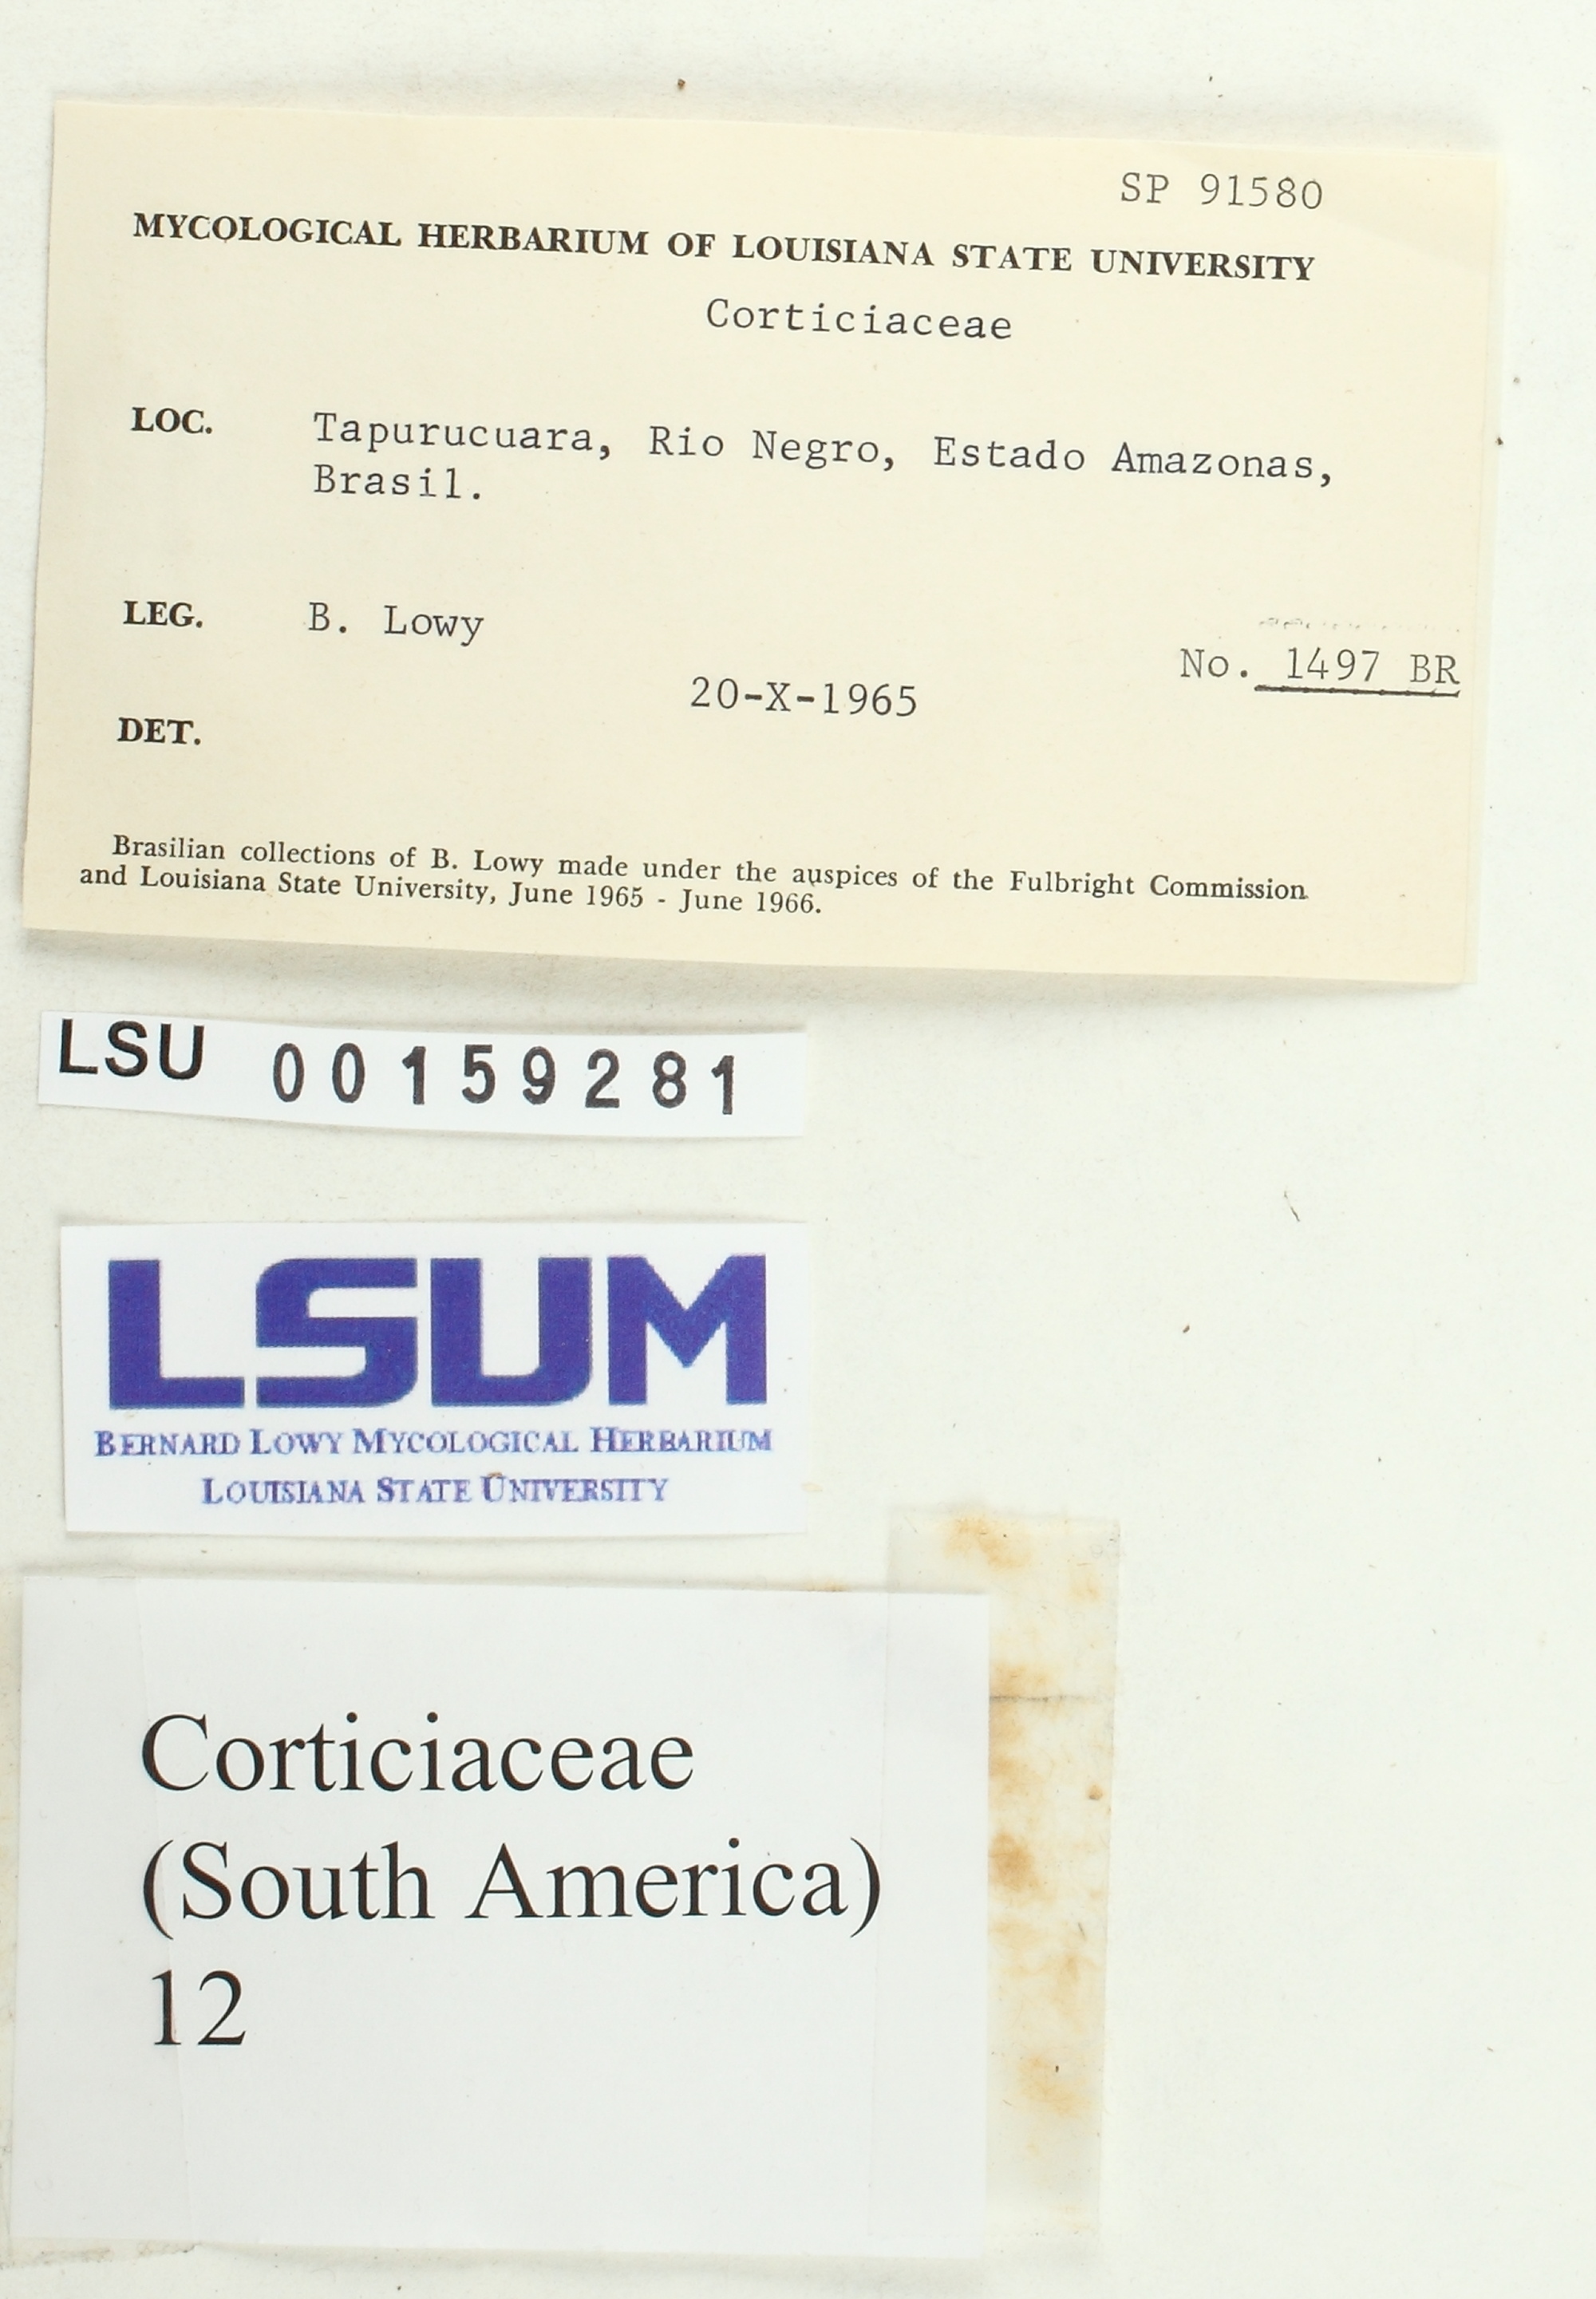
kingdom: Fungi
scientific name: Fungi
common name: Fungi
